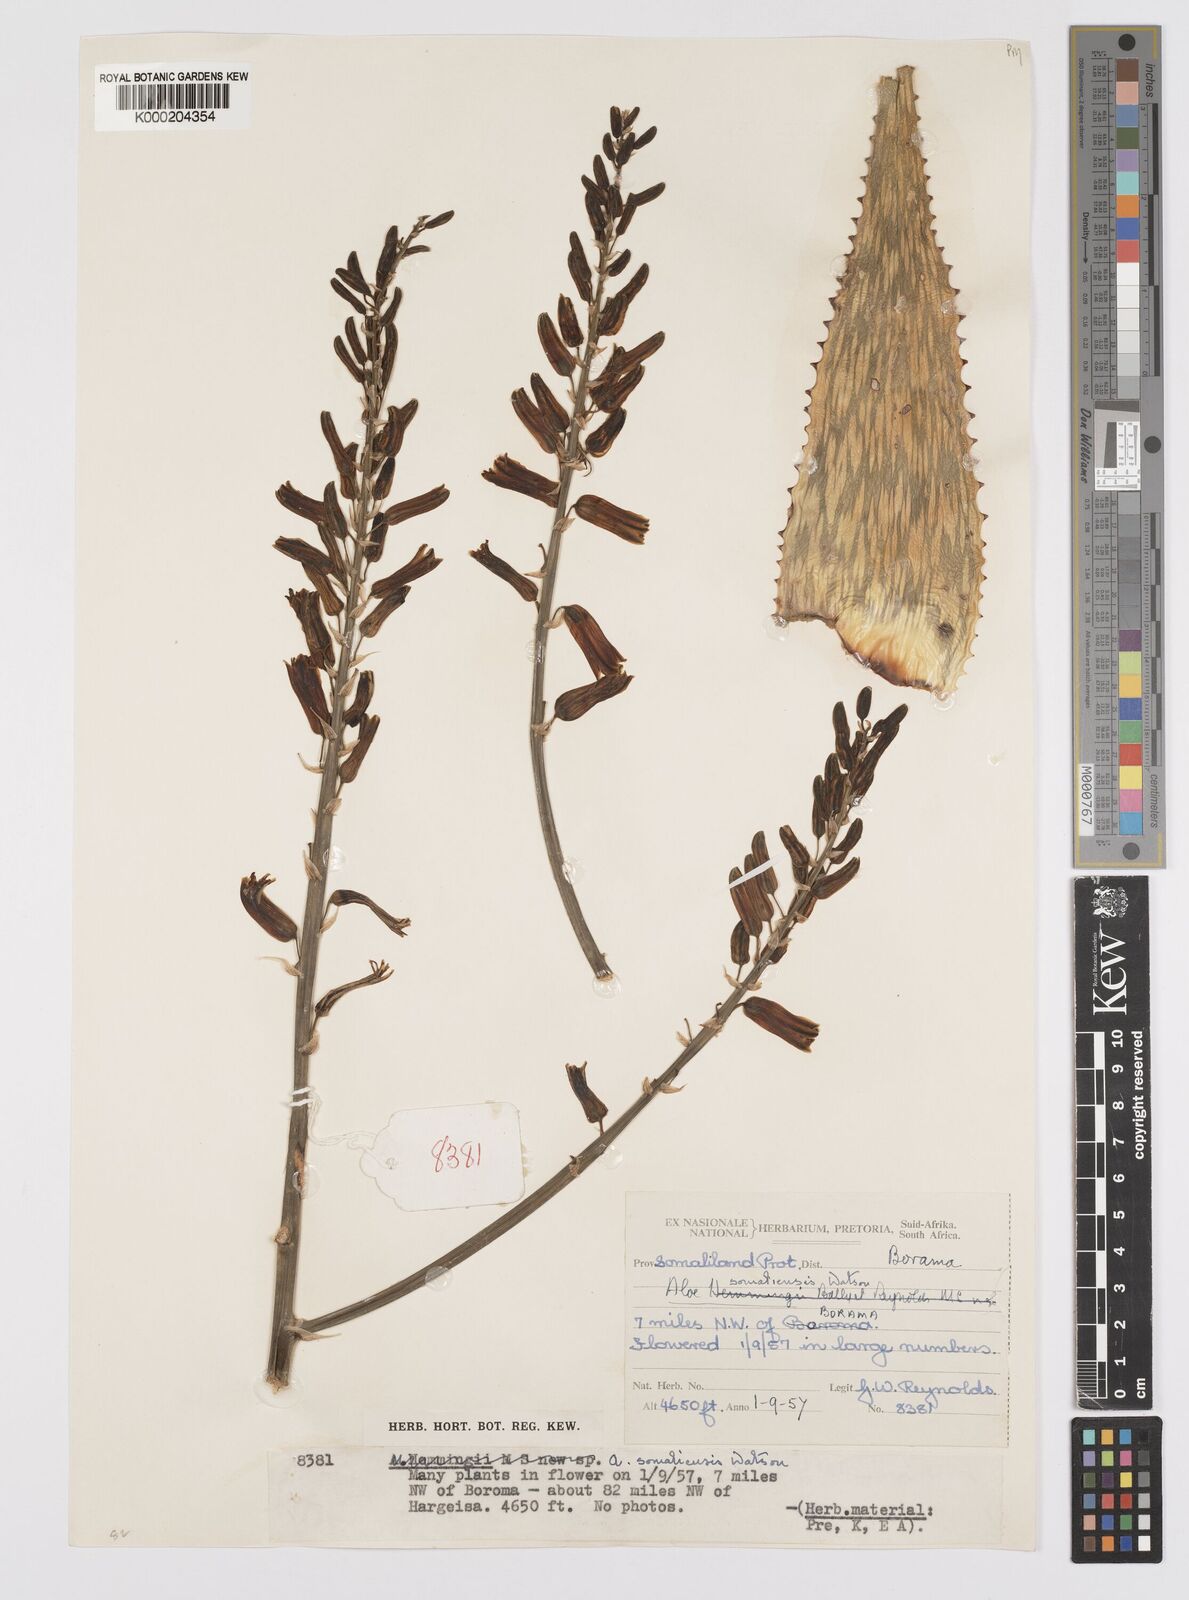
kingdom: Plantae
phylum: Tracheophyta
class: Liliopsida
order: Asparagales
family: Asphodelaceae
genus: Aloe
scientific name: Aloe somaliensis
